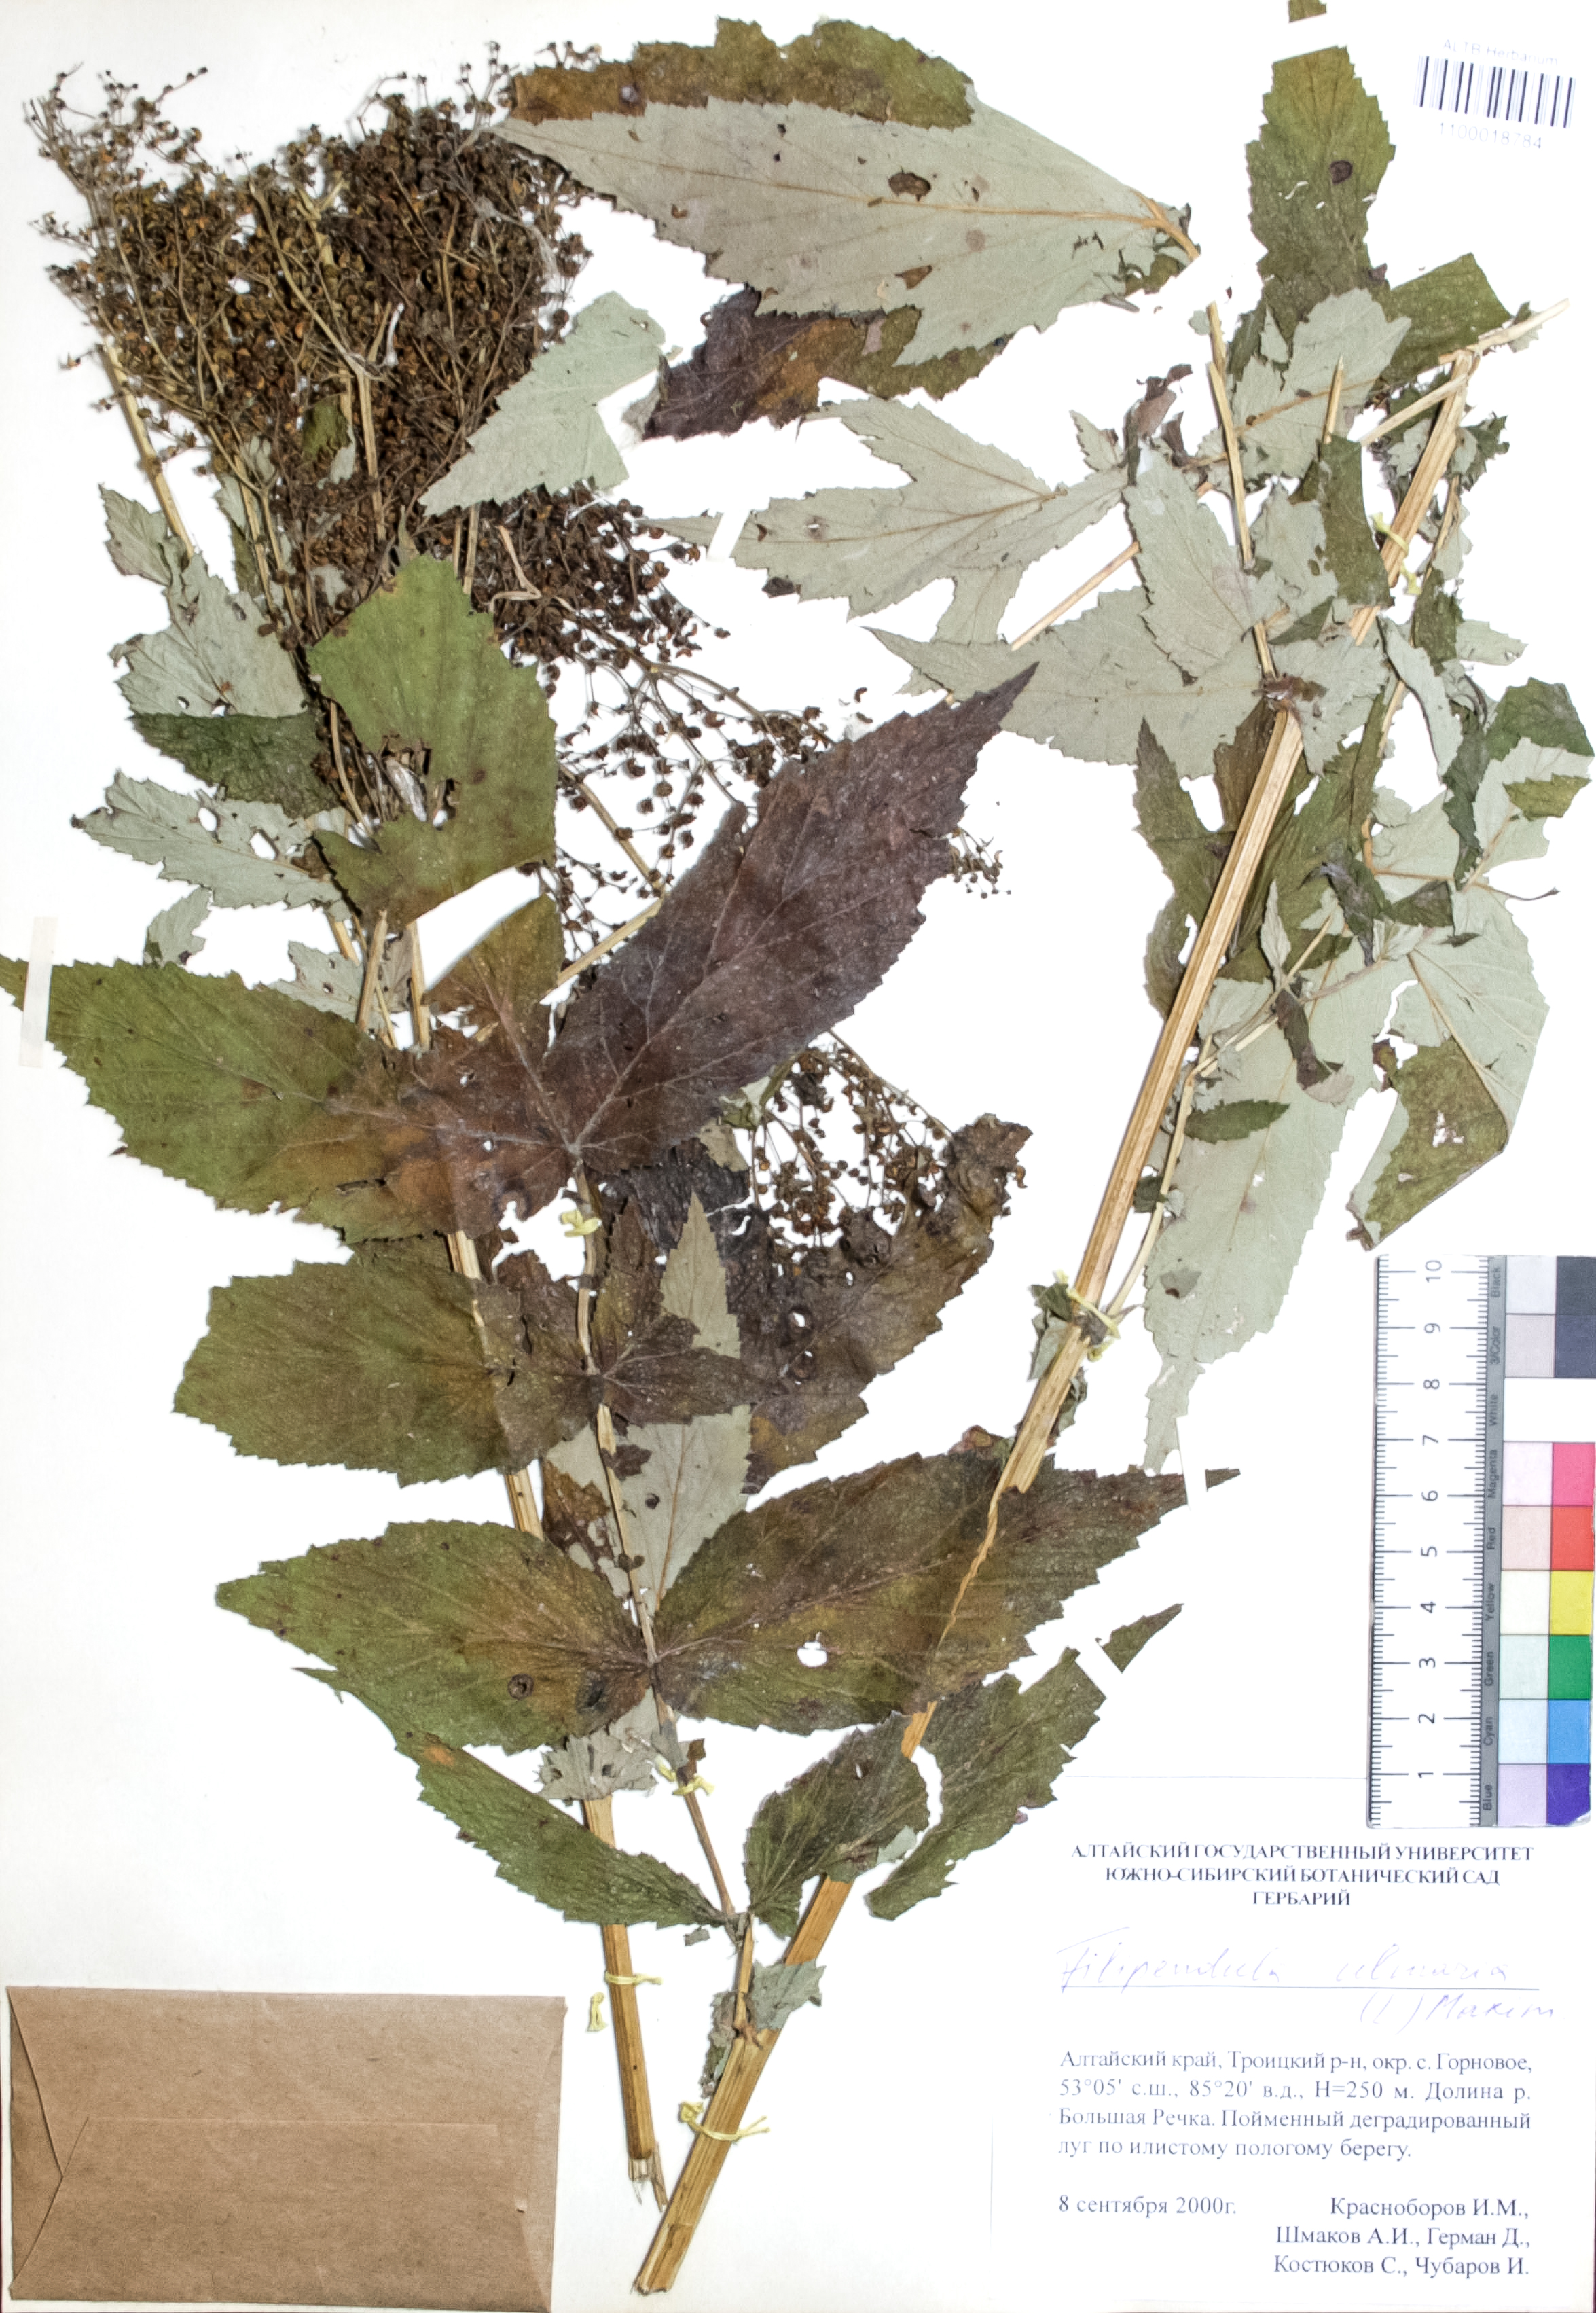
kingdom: Plantae
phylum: Tracheophyta
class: Magnoliopsida
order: Rosales
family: Rosaceae
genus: Filipendula
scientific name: Filipendula ulmaria
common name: Meadowsweet
